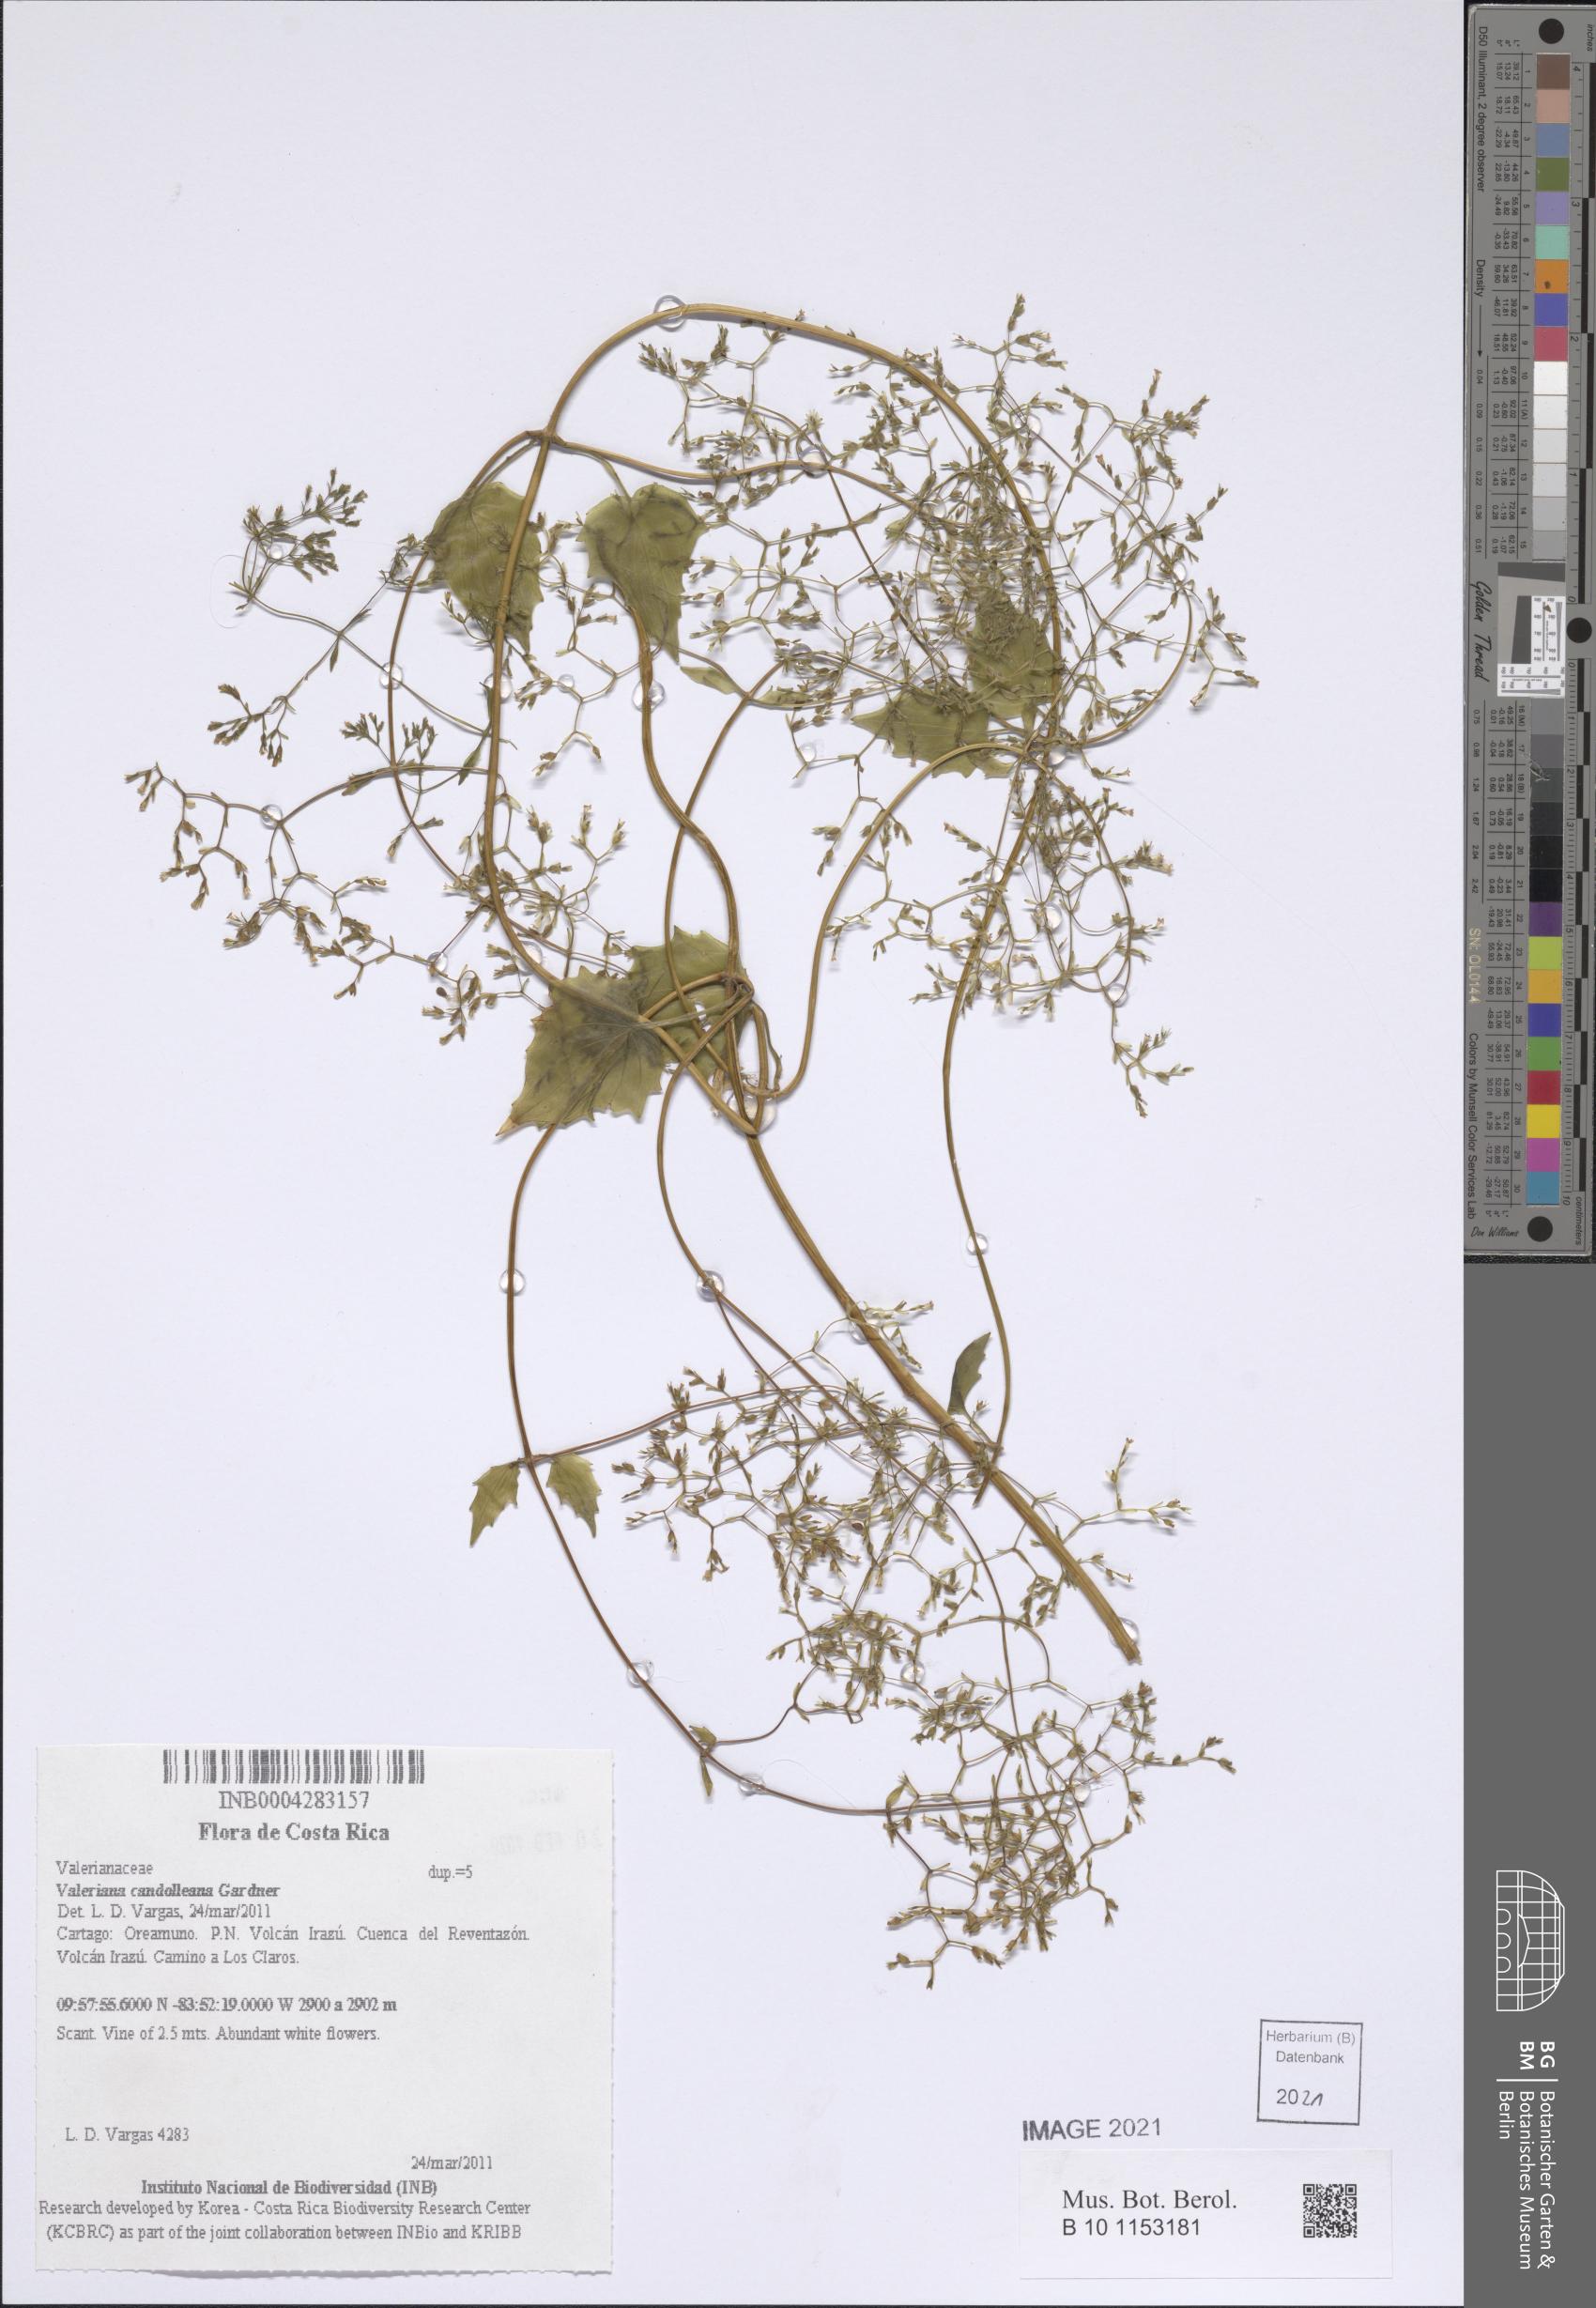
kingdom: Plantae
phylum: Tracheophyta
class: Magnoliopsida
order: Dipsacales
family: Caprifoliaceae
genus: Valeriana
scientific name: Valeriana candolleana
